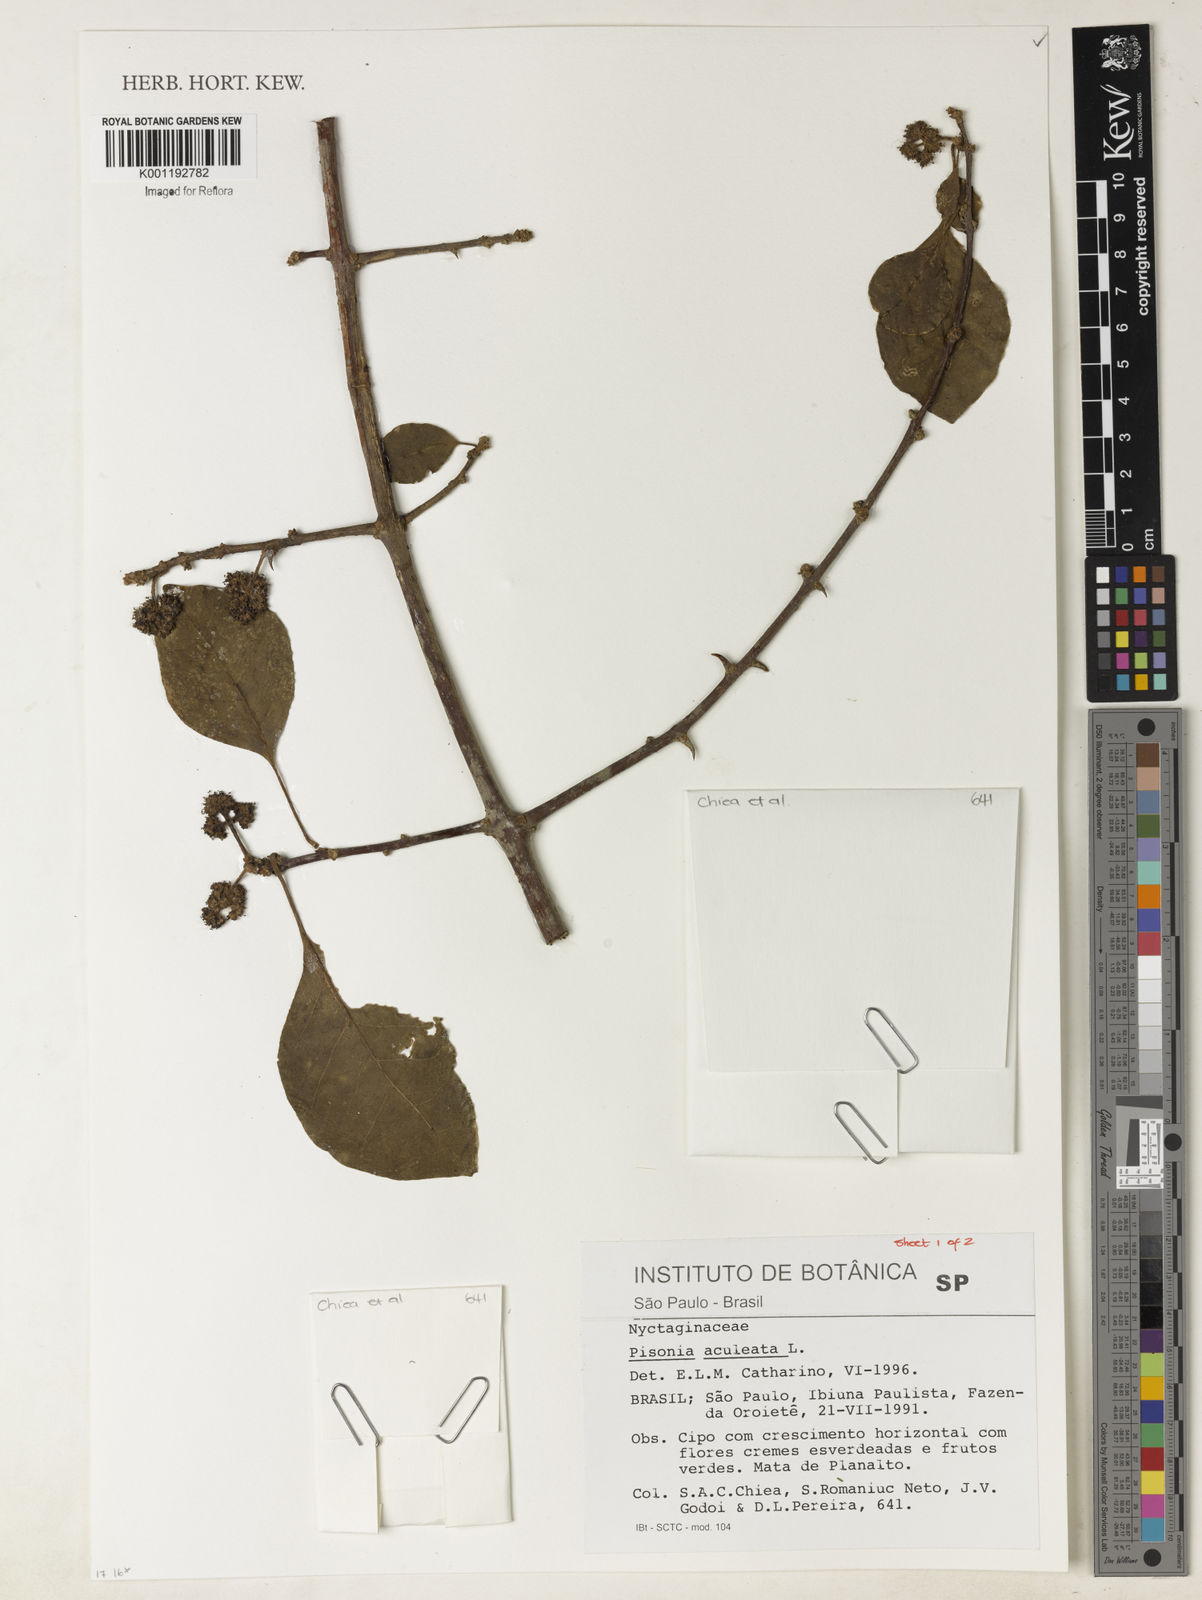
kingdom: Plantae
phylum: Tracheophyta
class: Magnoliopsida
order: Caryophyllales
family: Nyctaginaceae
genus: Pisonia
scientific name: Pisonia aculeata
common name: Cockspur vine
